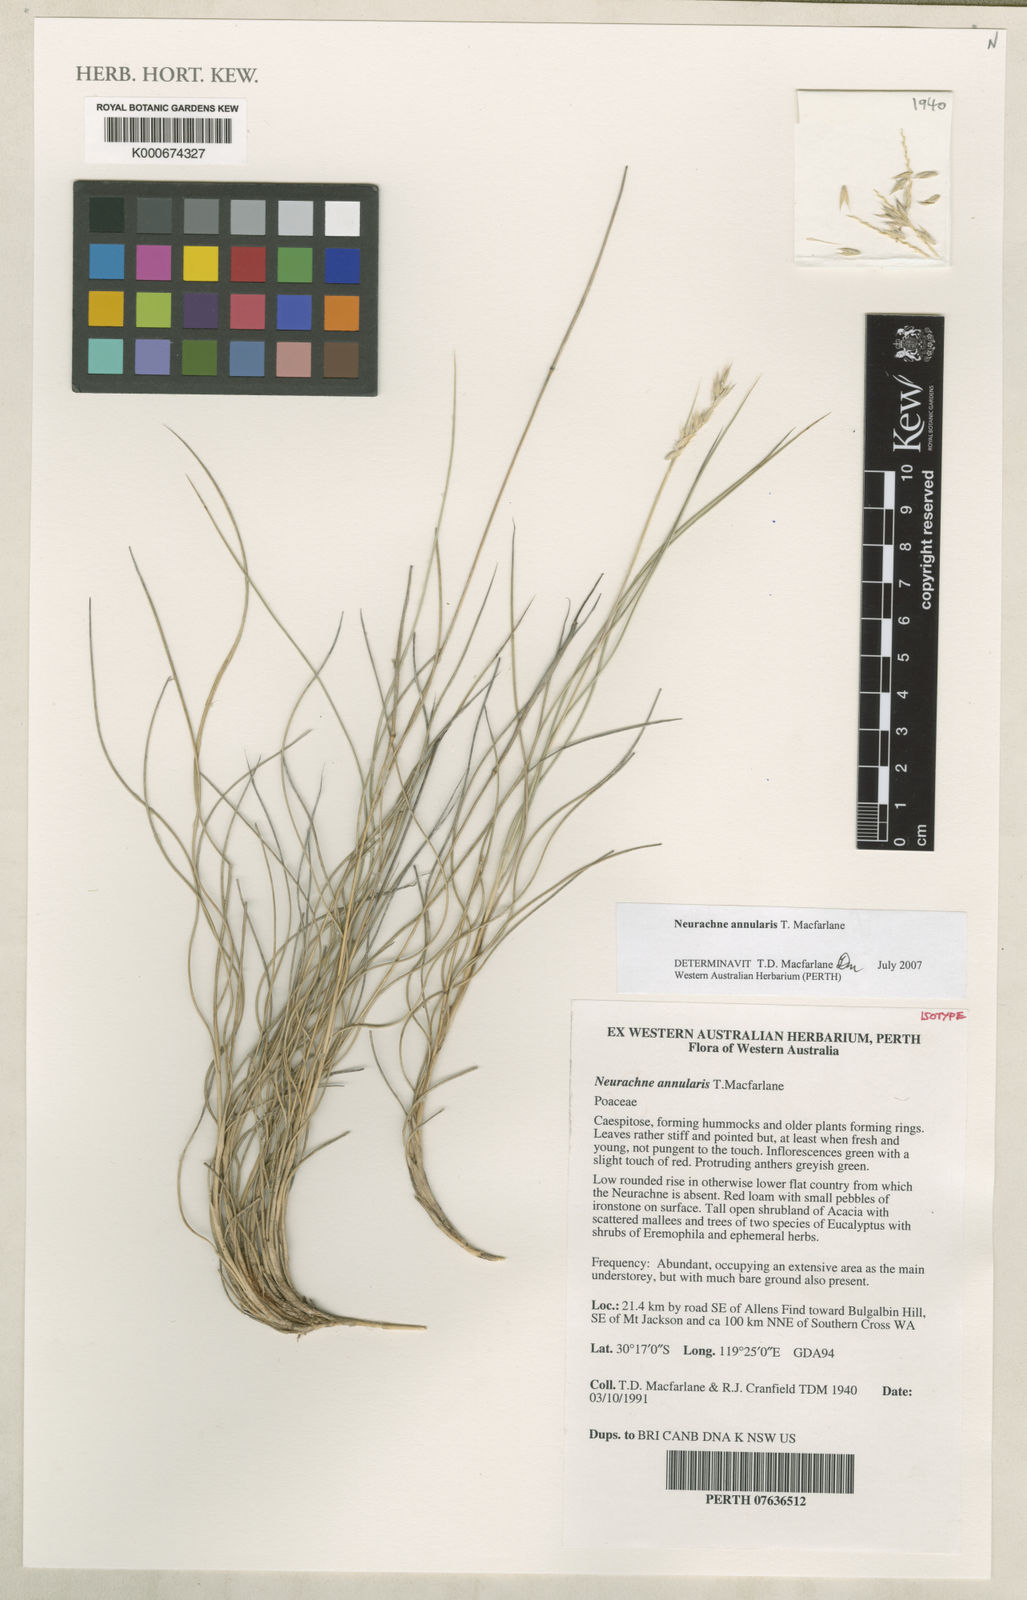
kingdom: Plantae
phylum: Tracheophyta
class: Liliopsida
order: Poales
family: Poaceae
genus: Neurachne
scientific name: Neurachne annularis
